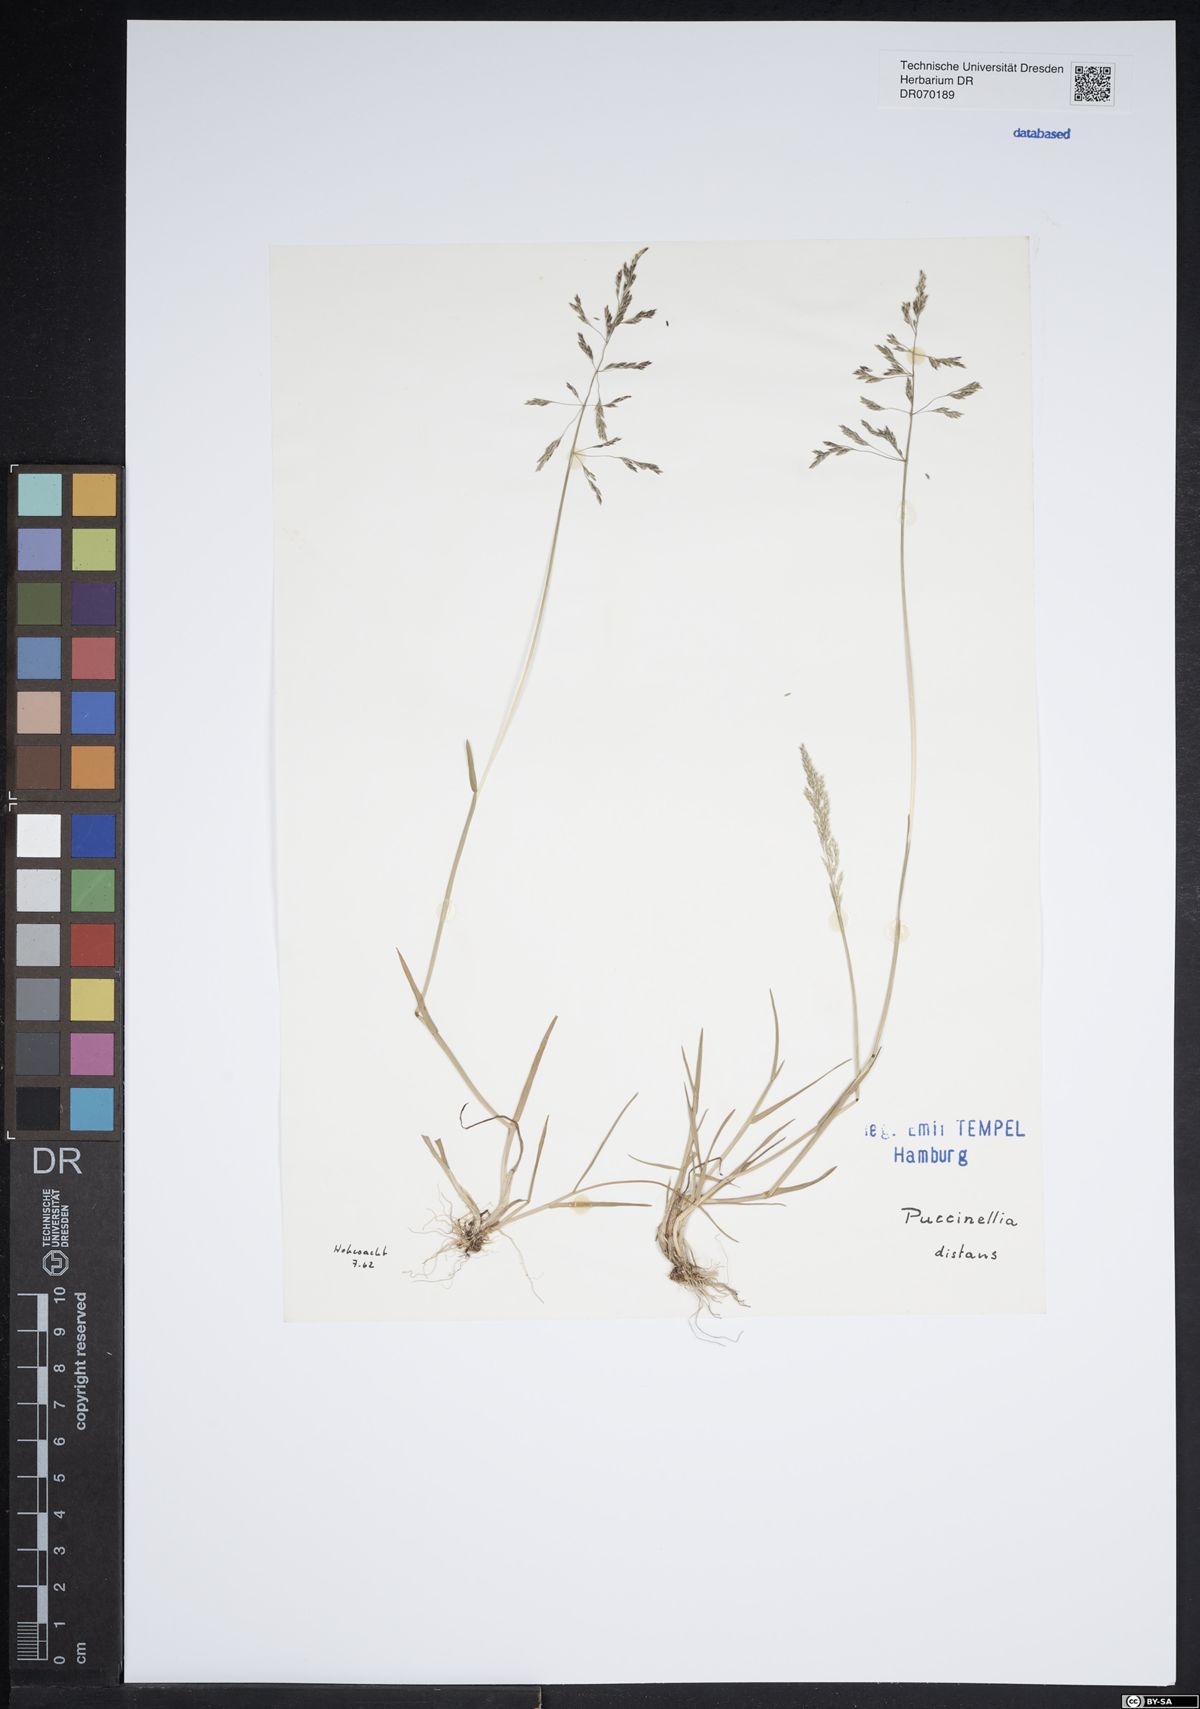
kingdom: Plantae
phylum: Tracheophyta
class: Liliopsida
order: Poales
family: Poaceae
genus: Puccinellia
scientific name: Puccinellia distans
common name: Weeping alkaligrass
